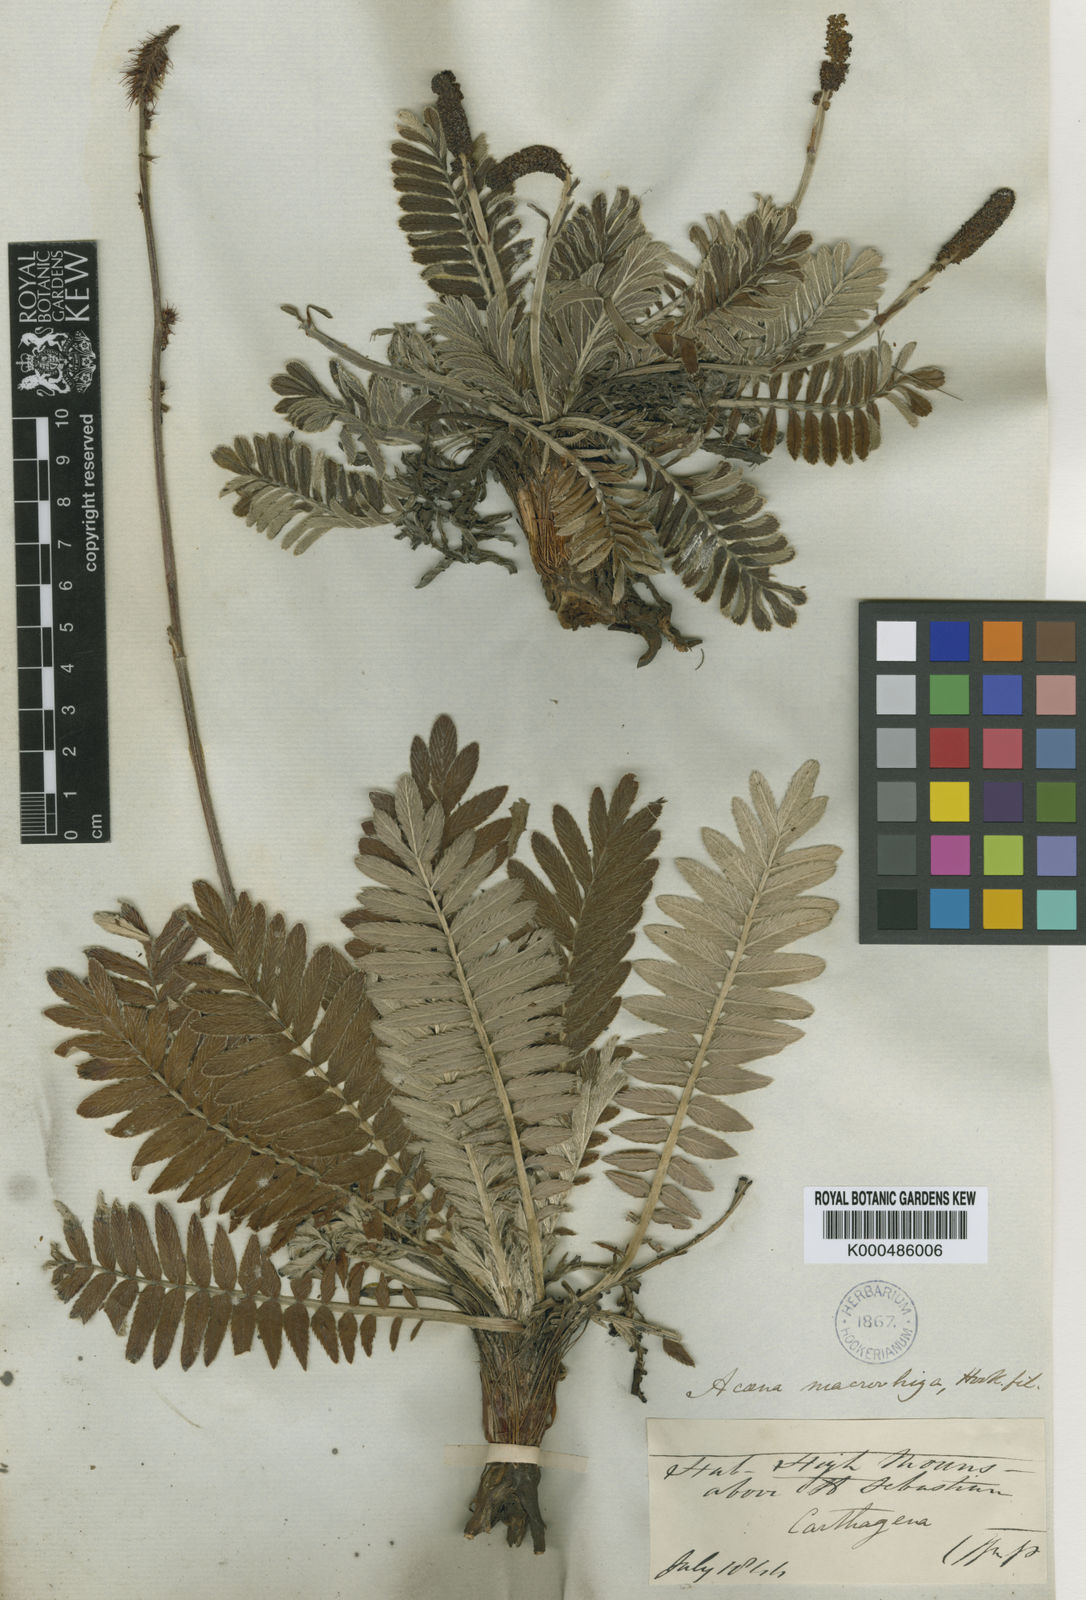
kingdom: Plantae
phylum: Tracheophyta
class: Magnoliopsida
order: Rosales
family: Rosaceae
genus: Acaena
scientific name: Acaena cylindristachya
